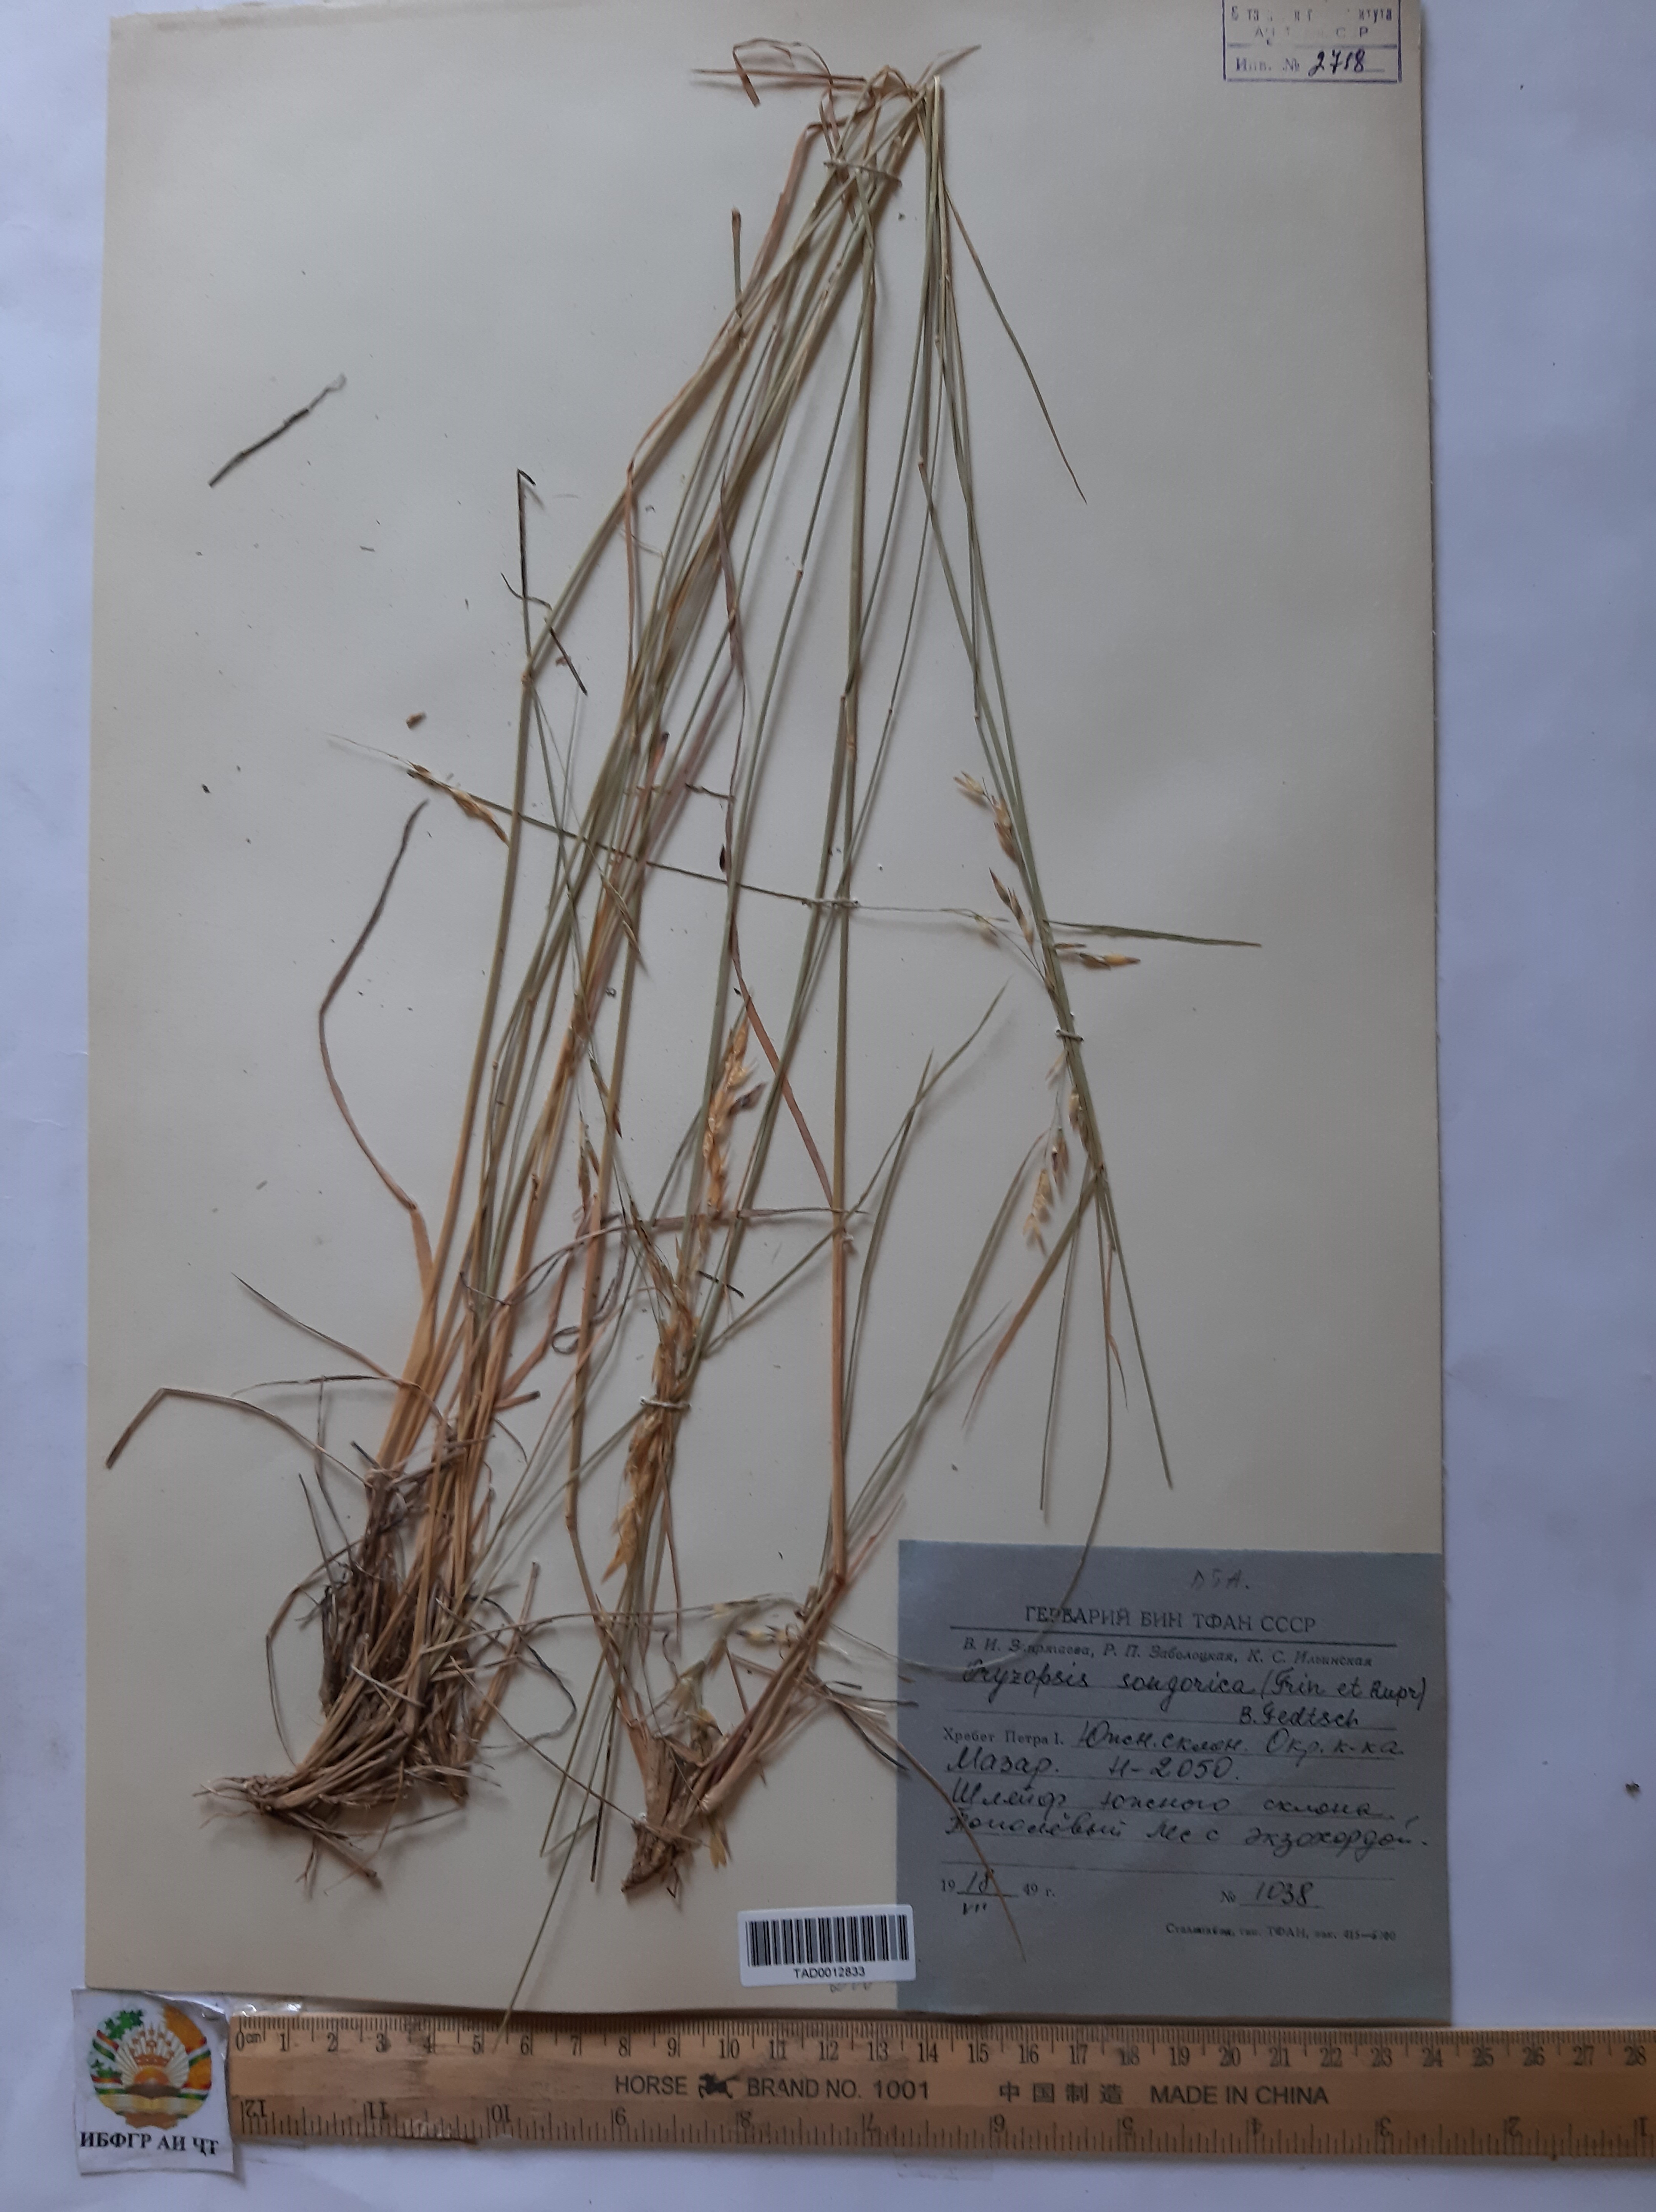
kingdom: Plantae
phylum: Tracheophyta
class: Liliopsida
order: Poales
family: Poaceae
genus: Piptatherum
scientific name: Piptatherum songaricum
